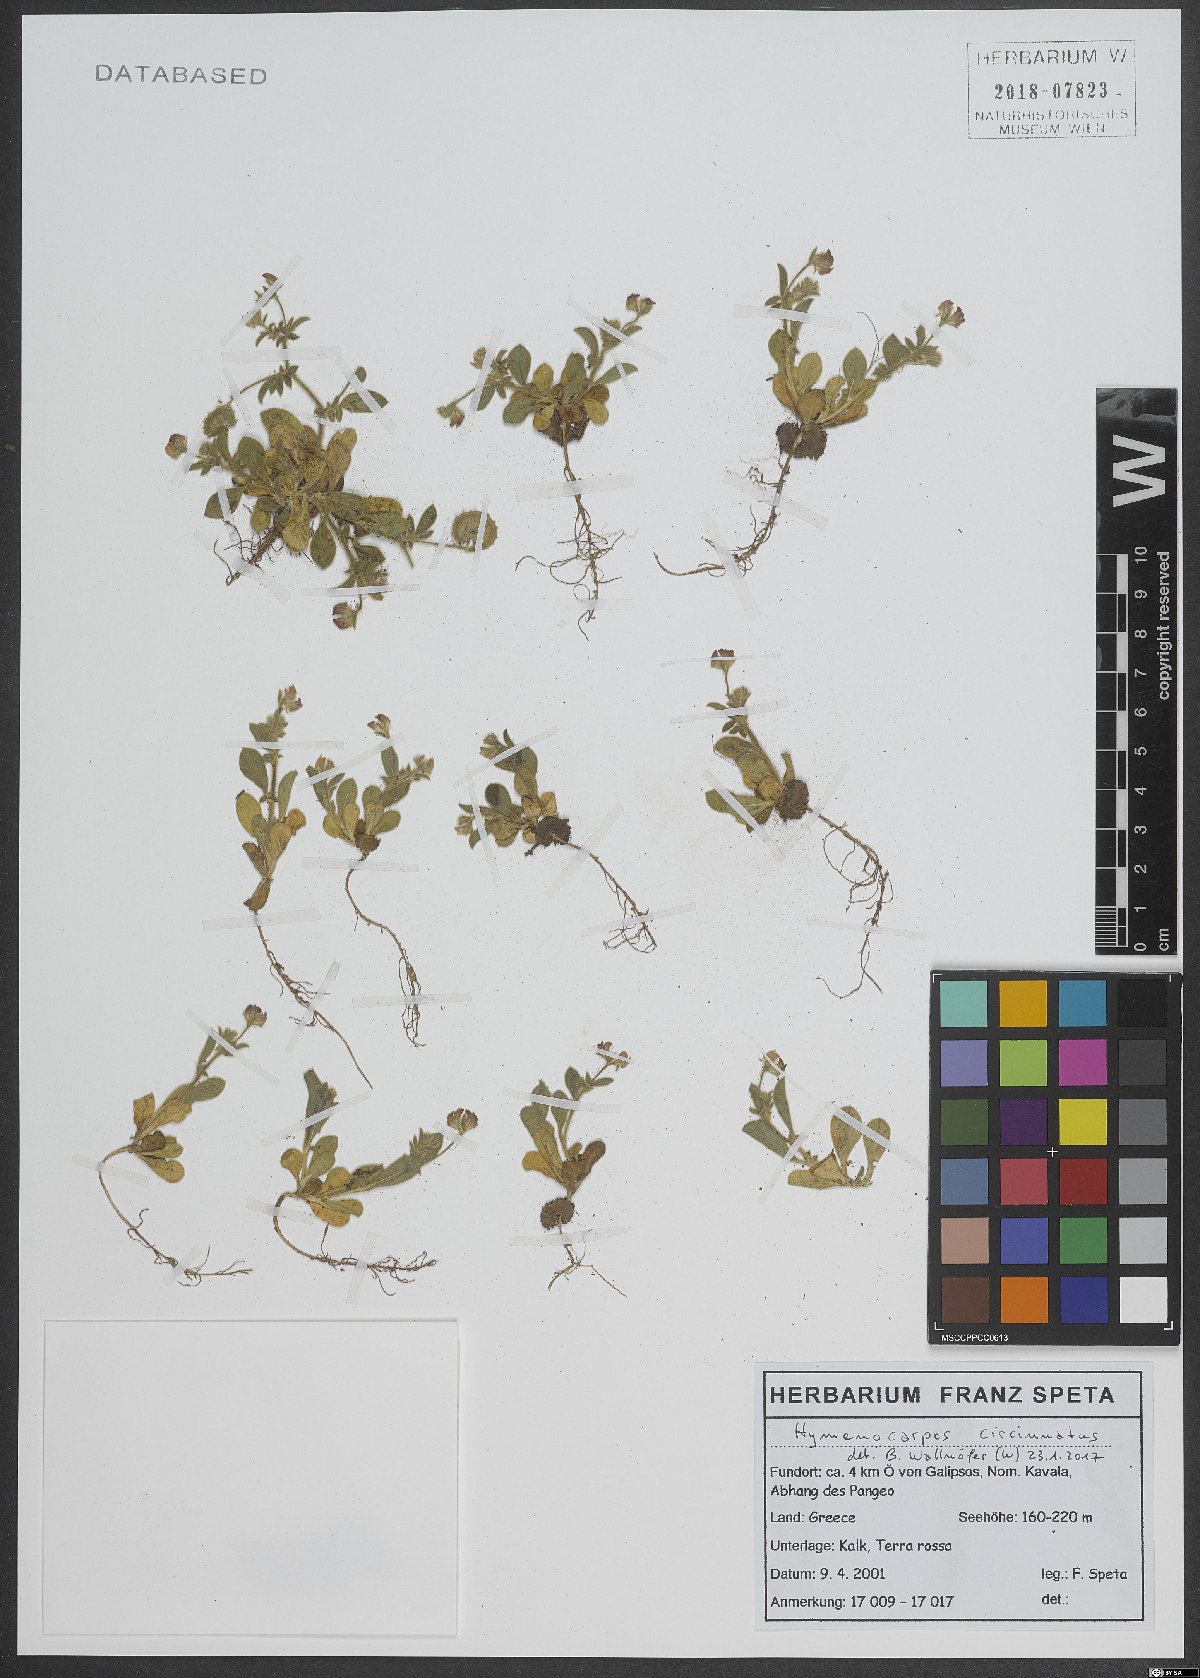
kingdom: Plantae
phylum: Tracheophyta
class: Magnoliopsida
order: Fabales
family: Fabaceae
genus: Anthyllis
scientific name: Anthyllis circinnata
